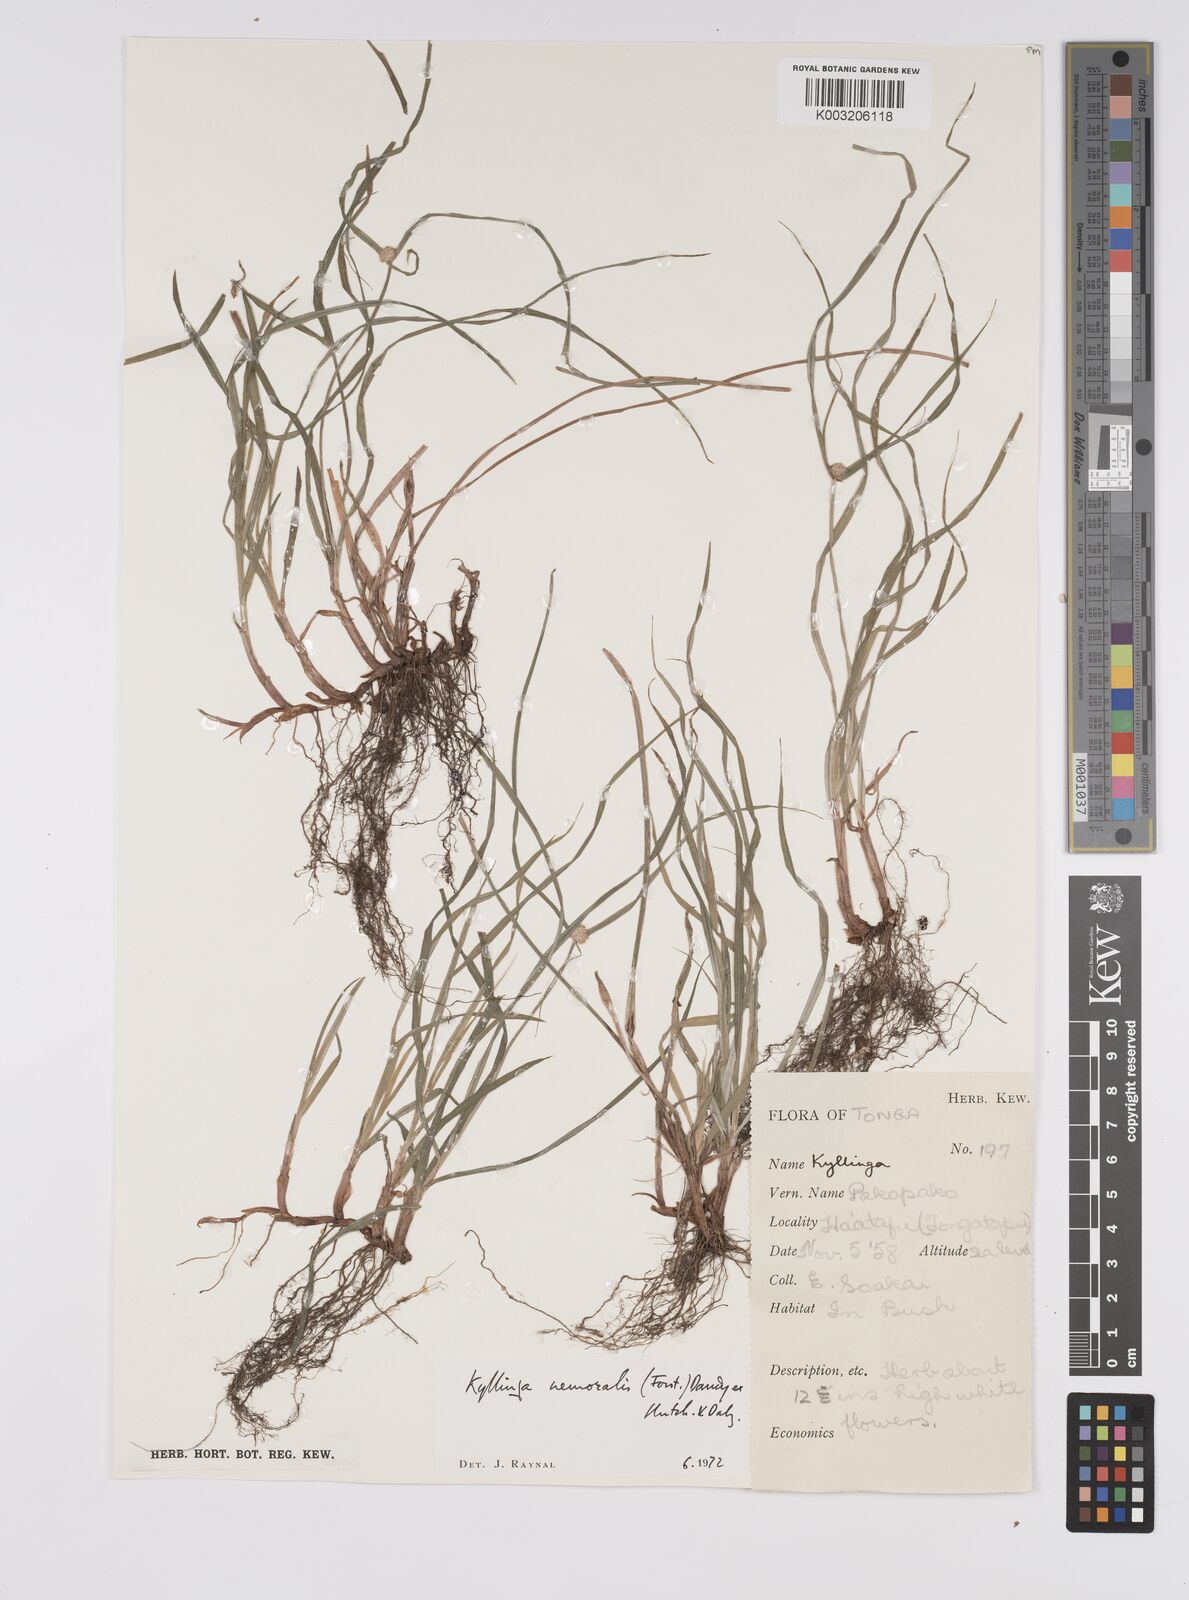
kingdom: Plantae
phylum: Tracheophyta
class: Liliopsida
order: Poales
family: Cyperaceae
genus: Cyperus
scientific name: Cyperus nemoralis
